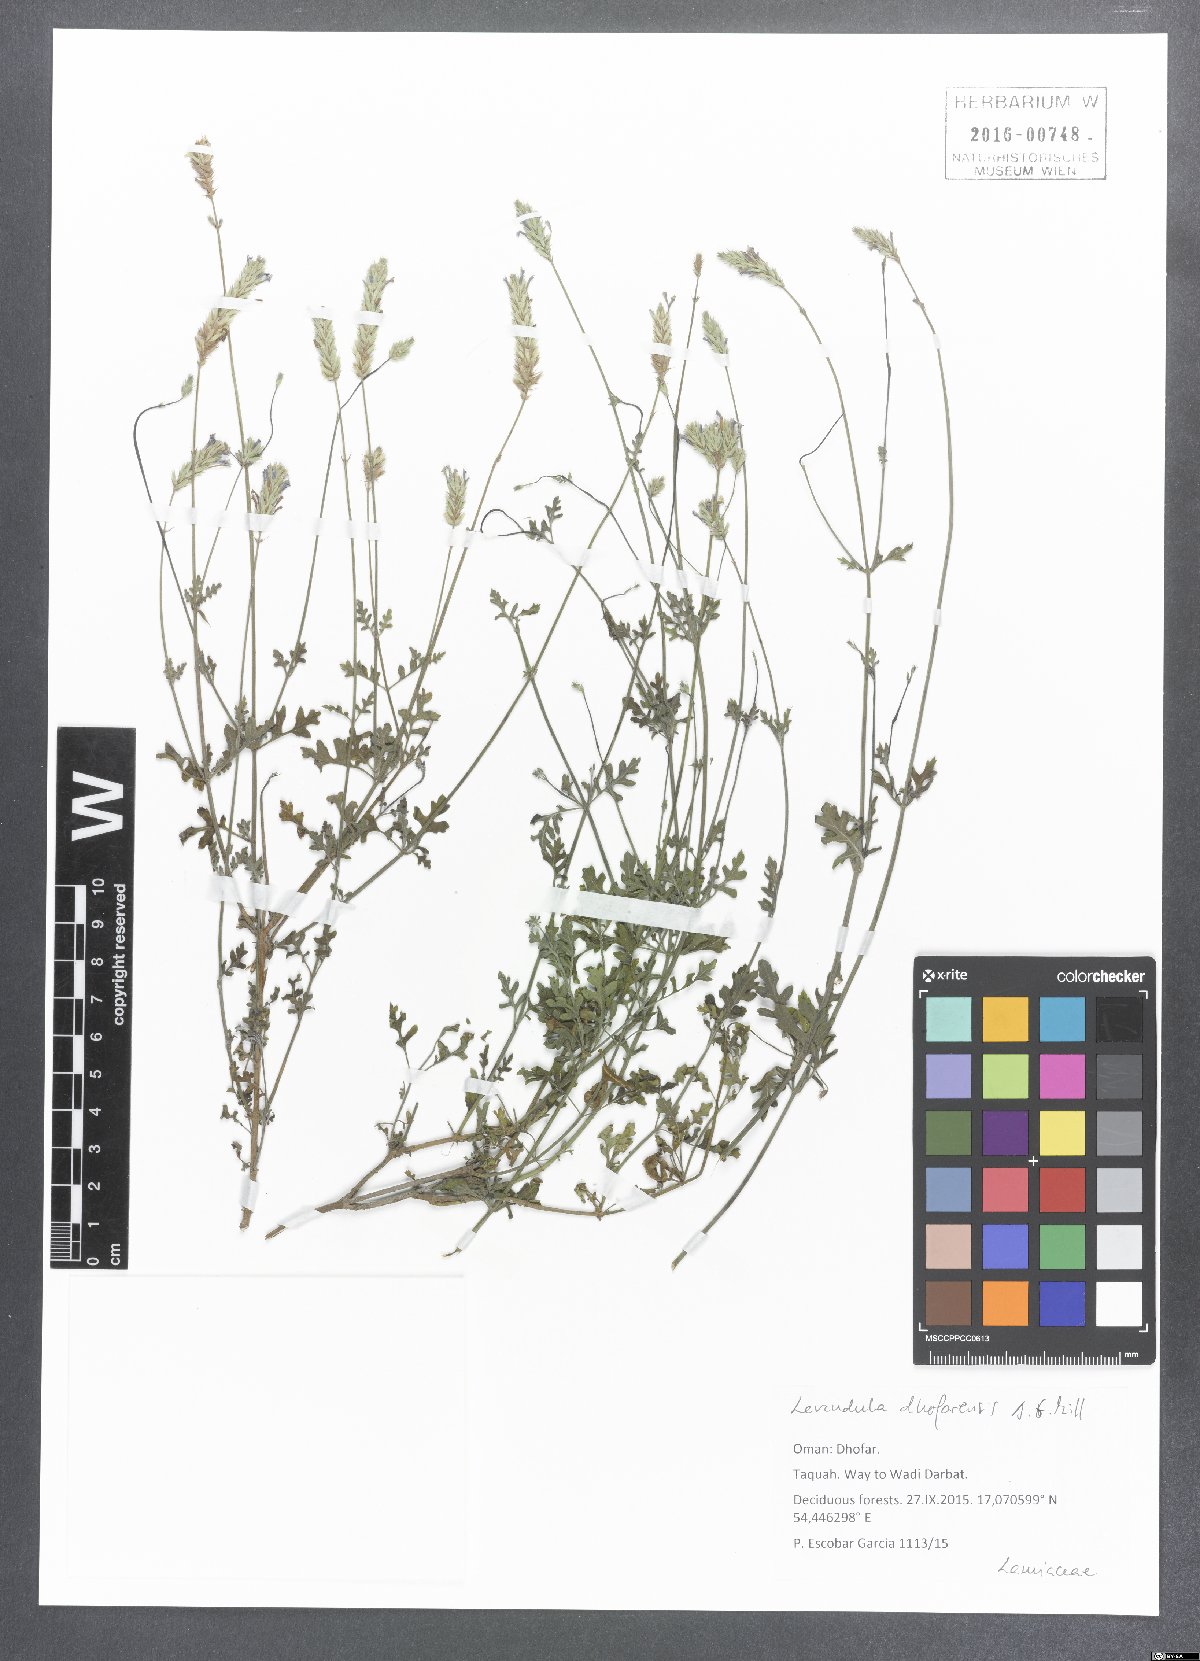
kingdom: Plantae
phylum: Tracheophyta
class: Magnoliopsida
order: Lamiales
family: Lamiaceae
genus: Lavandula
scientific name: Lavandula dhofarensis
